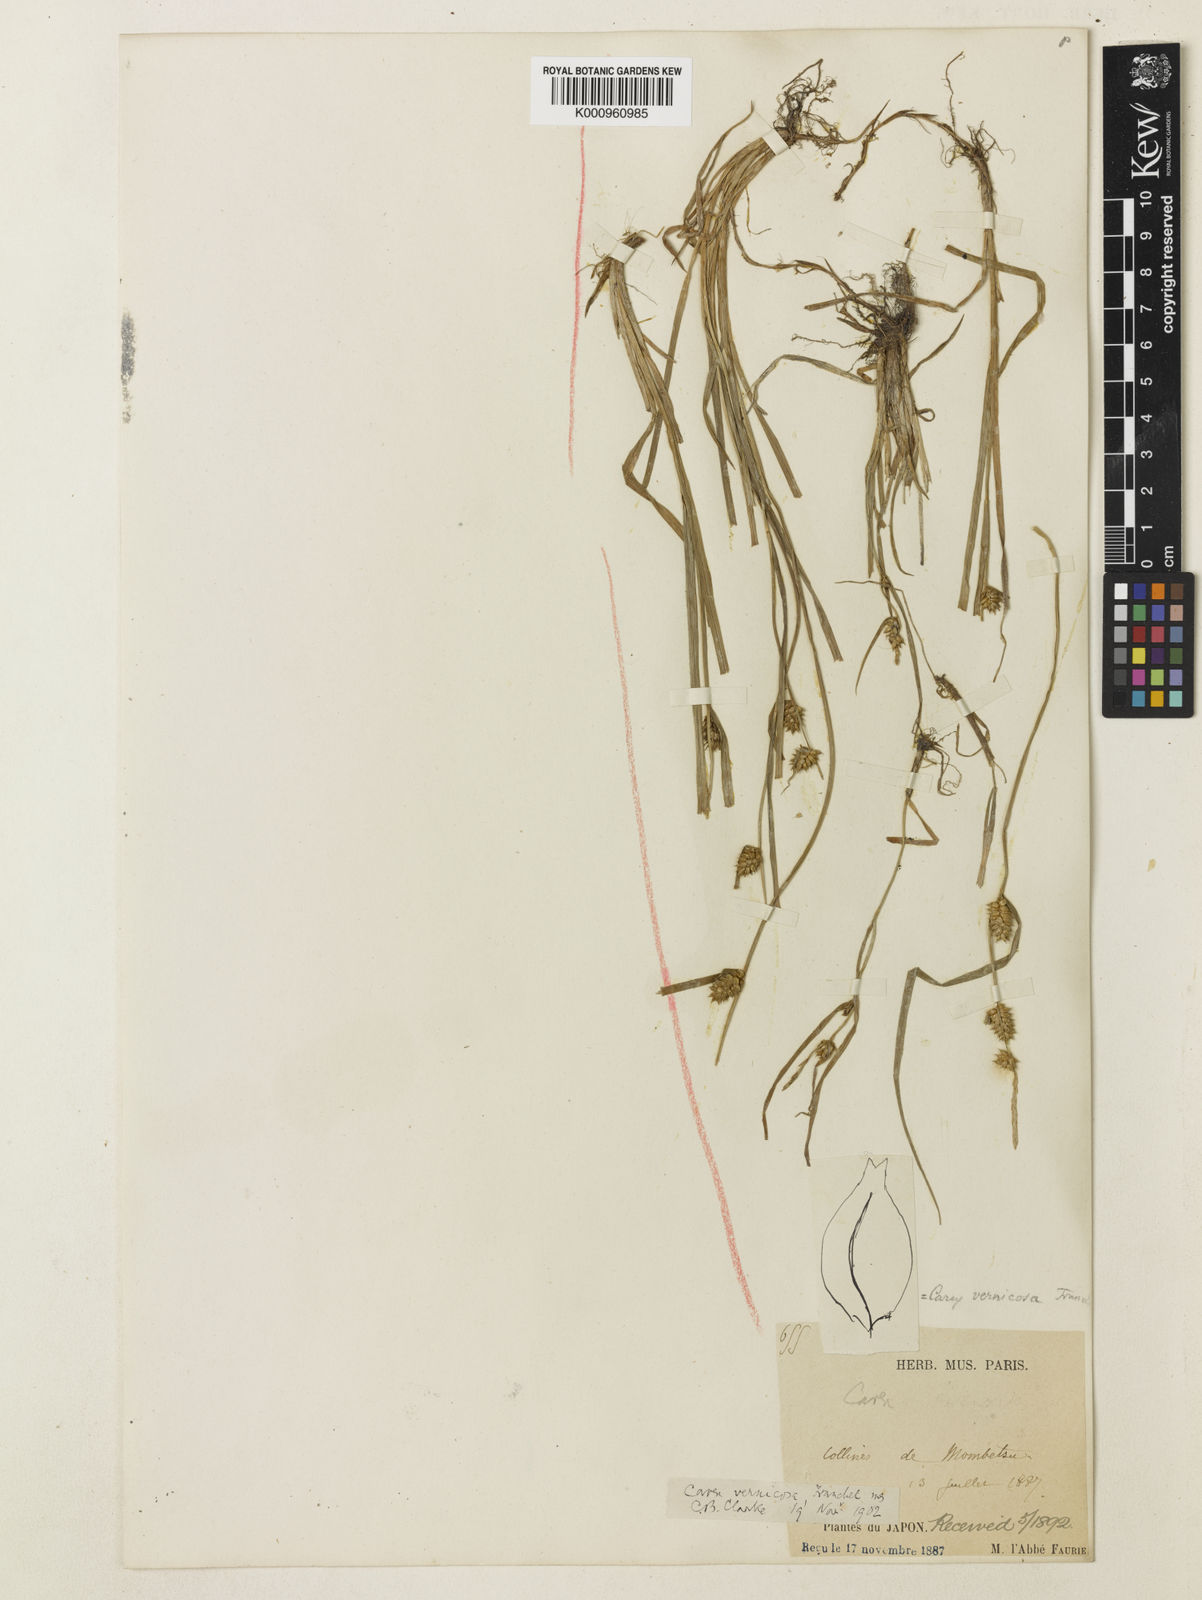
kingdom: Plantae
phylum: Tracheophyta
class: Liliopsida
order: Poales
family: Cyperaceae
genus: Carex
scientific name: Carex aphanolepis
